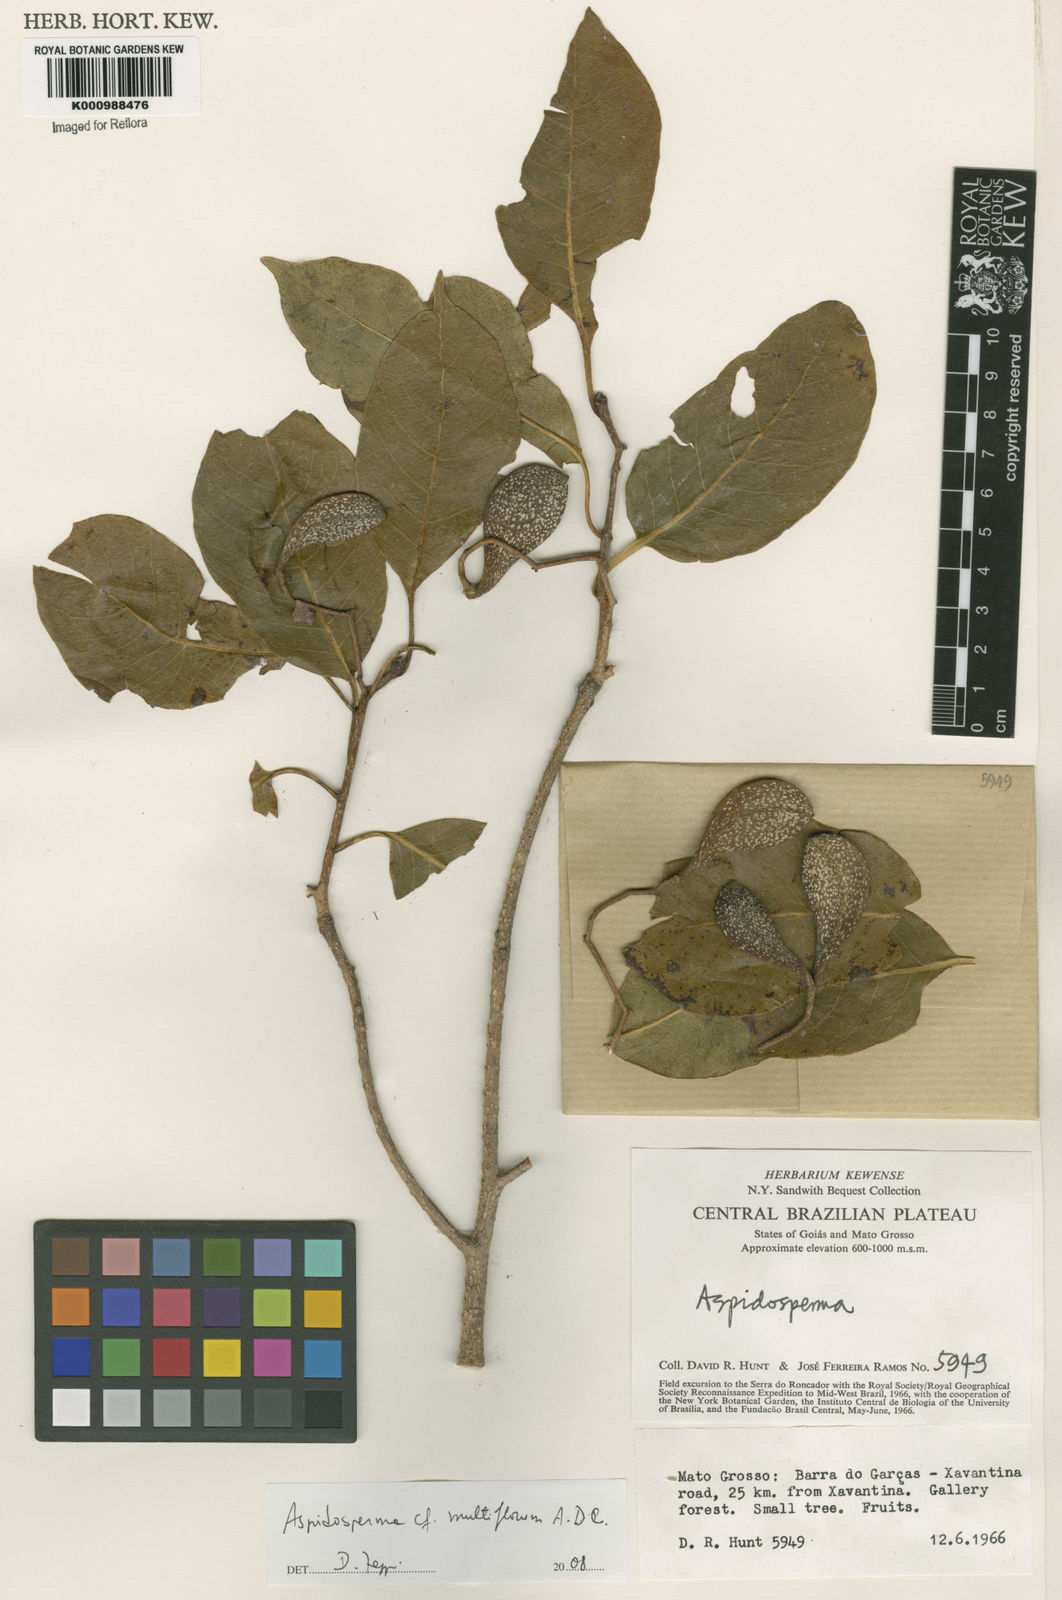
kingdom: Plantae
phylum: Tracheophyta
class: Magnoliopsida
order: Gentianales
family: Apocynaceae
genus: Aspidosperma
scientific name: Aspidosperma multiflorum
